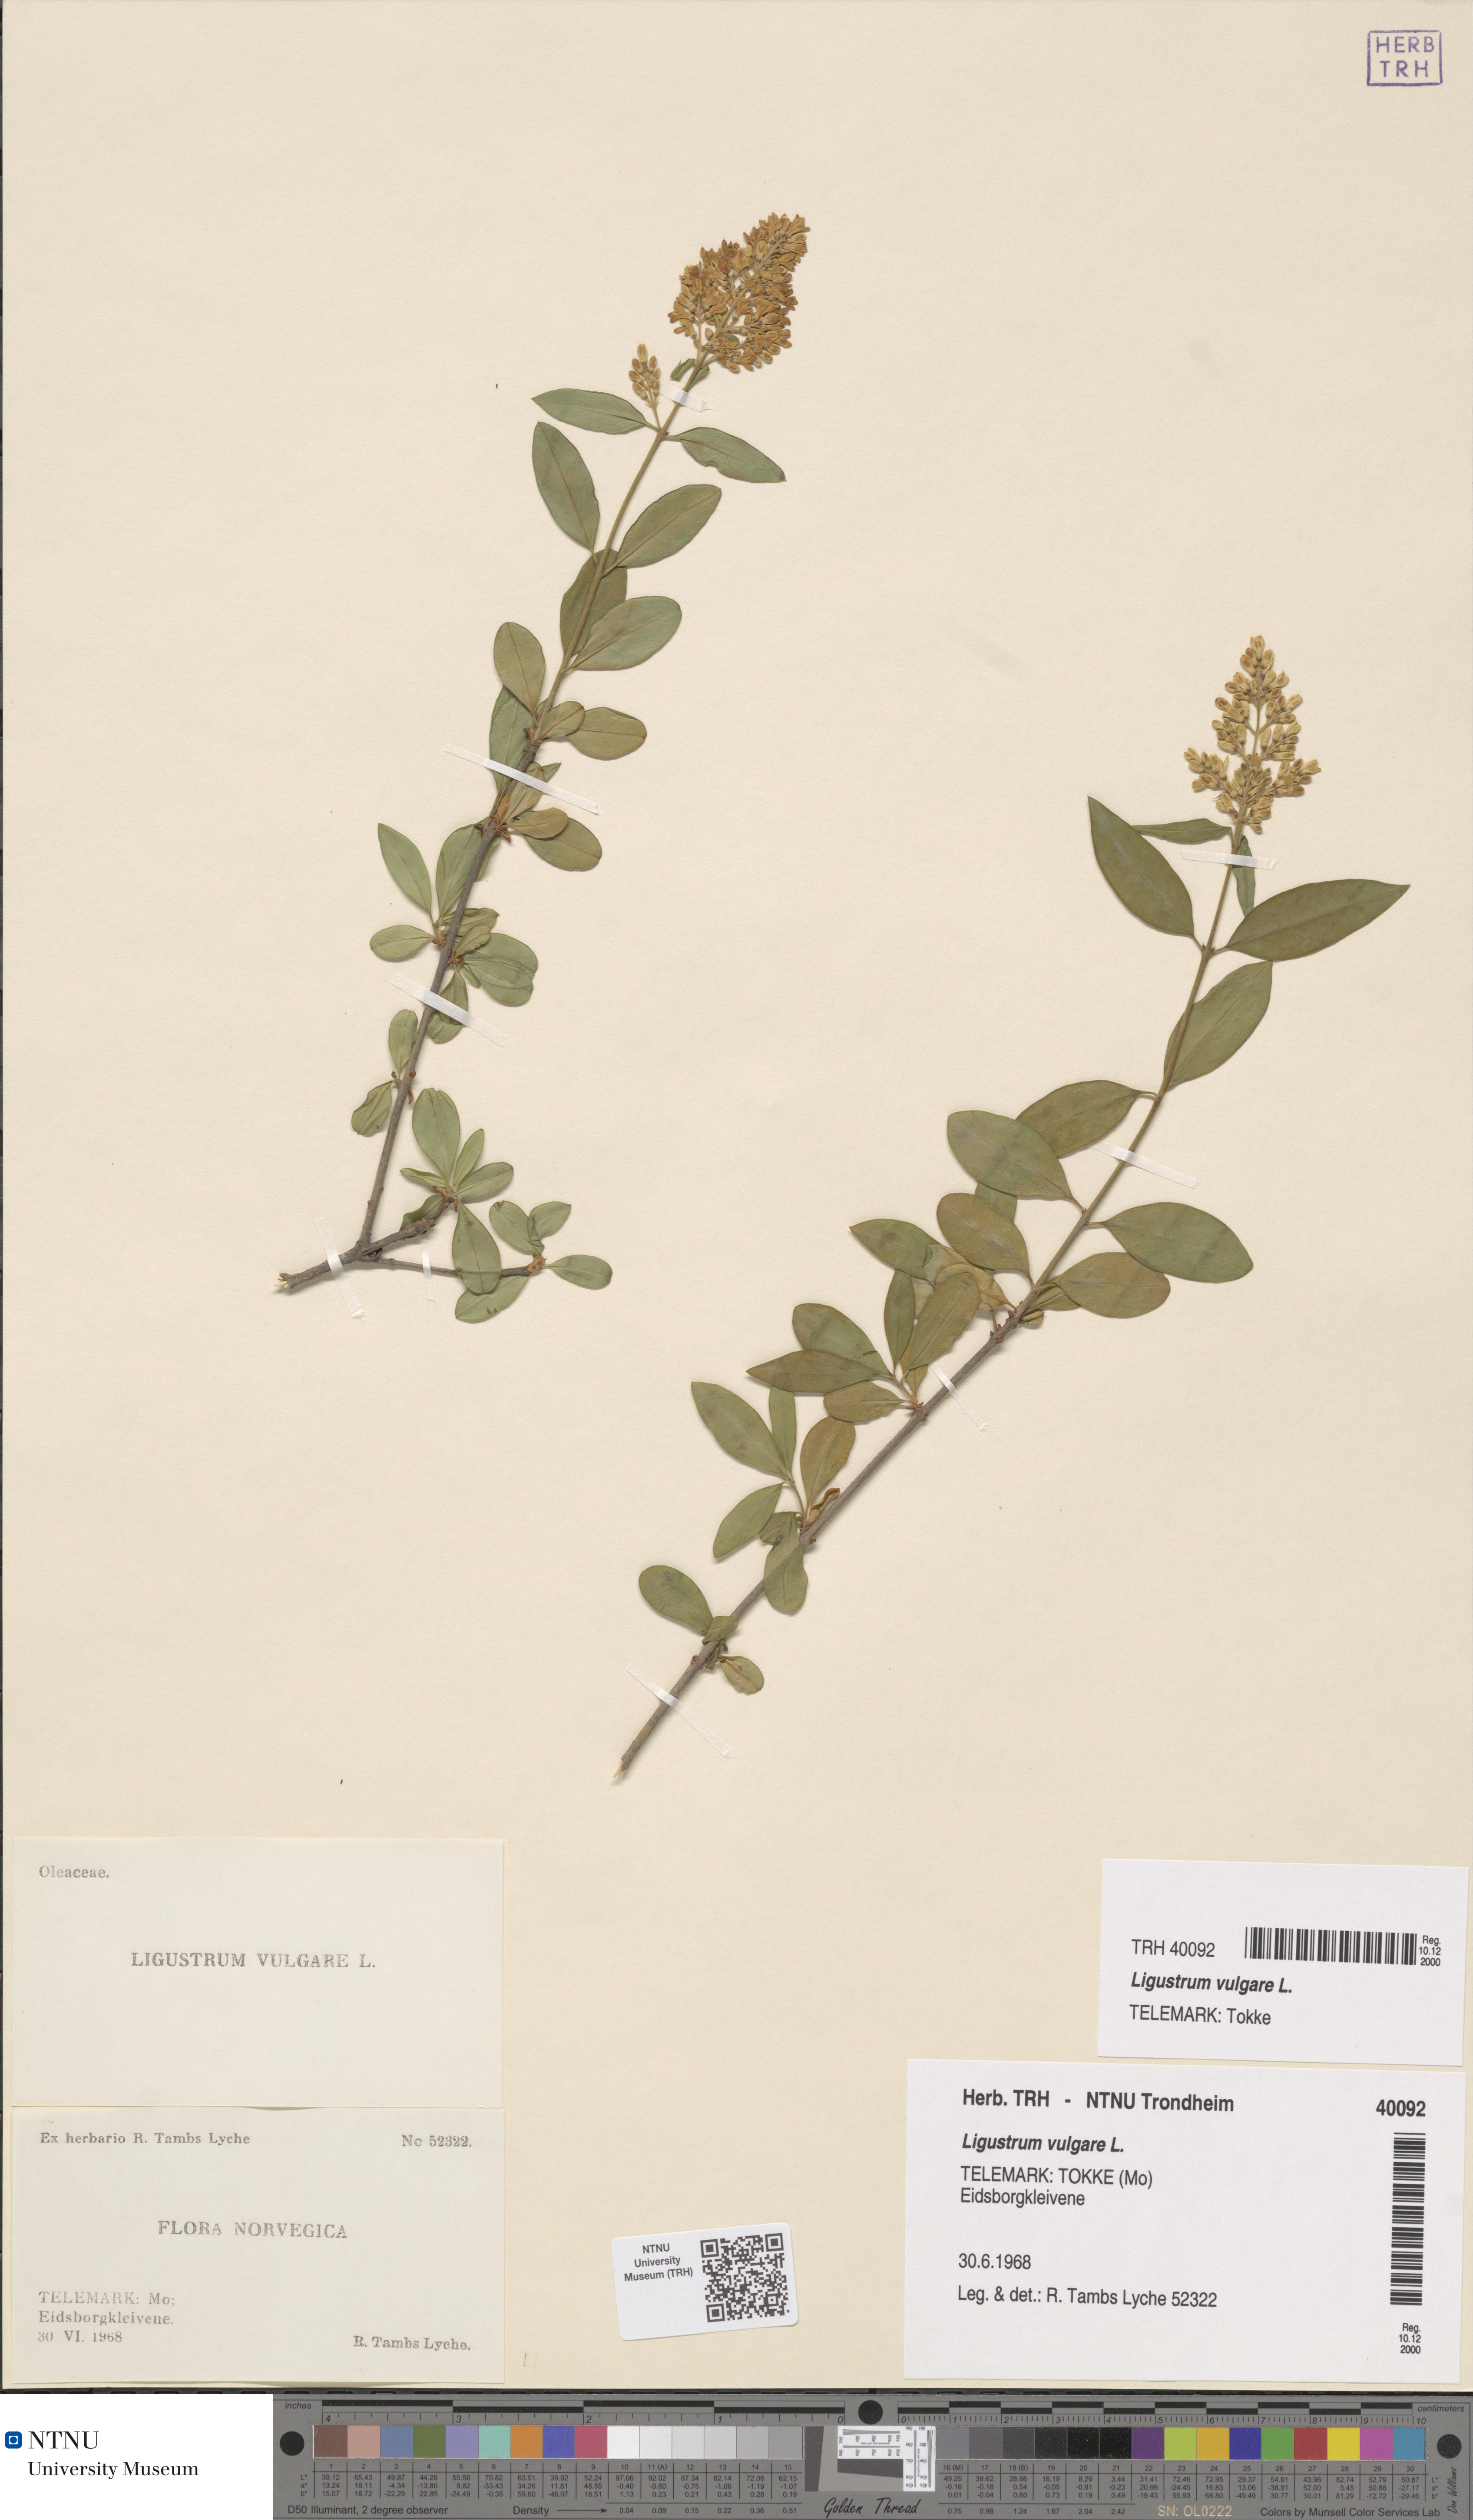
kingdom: Plantae
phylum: Tracheophyta
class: Magnoliopsida
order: Lamiales
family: Oleaceae
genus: Ligustrum
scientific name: Ligustrum vulgare
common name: Wild privet
